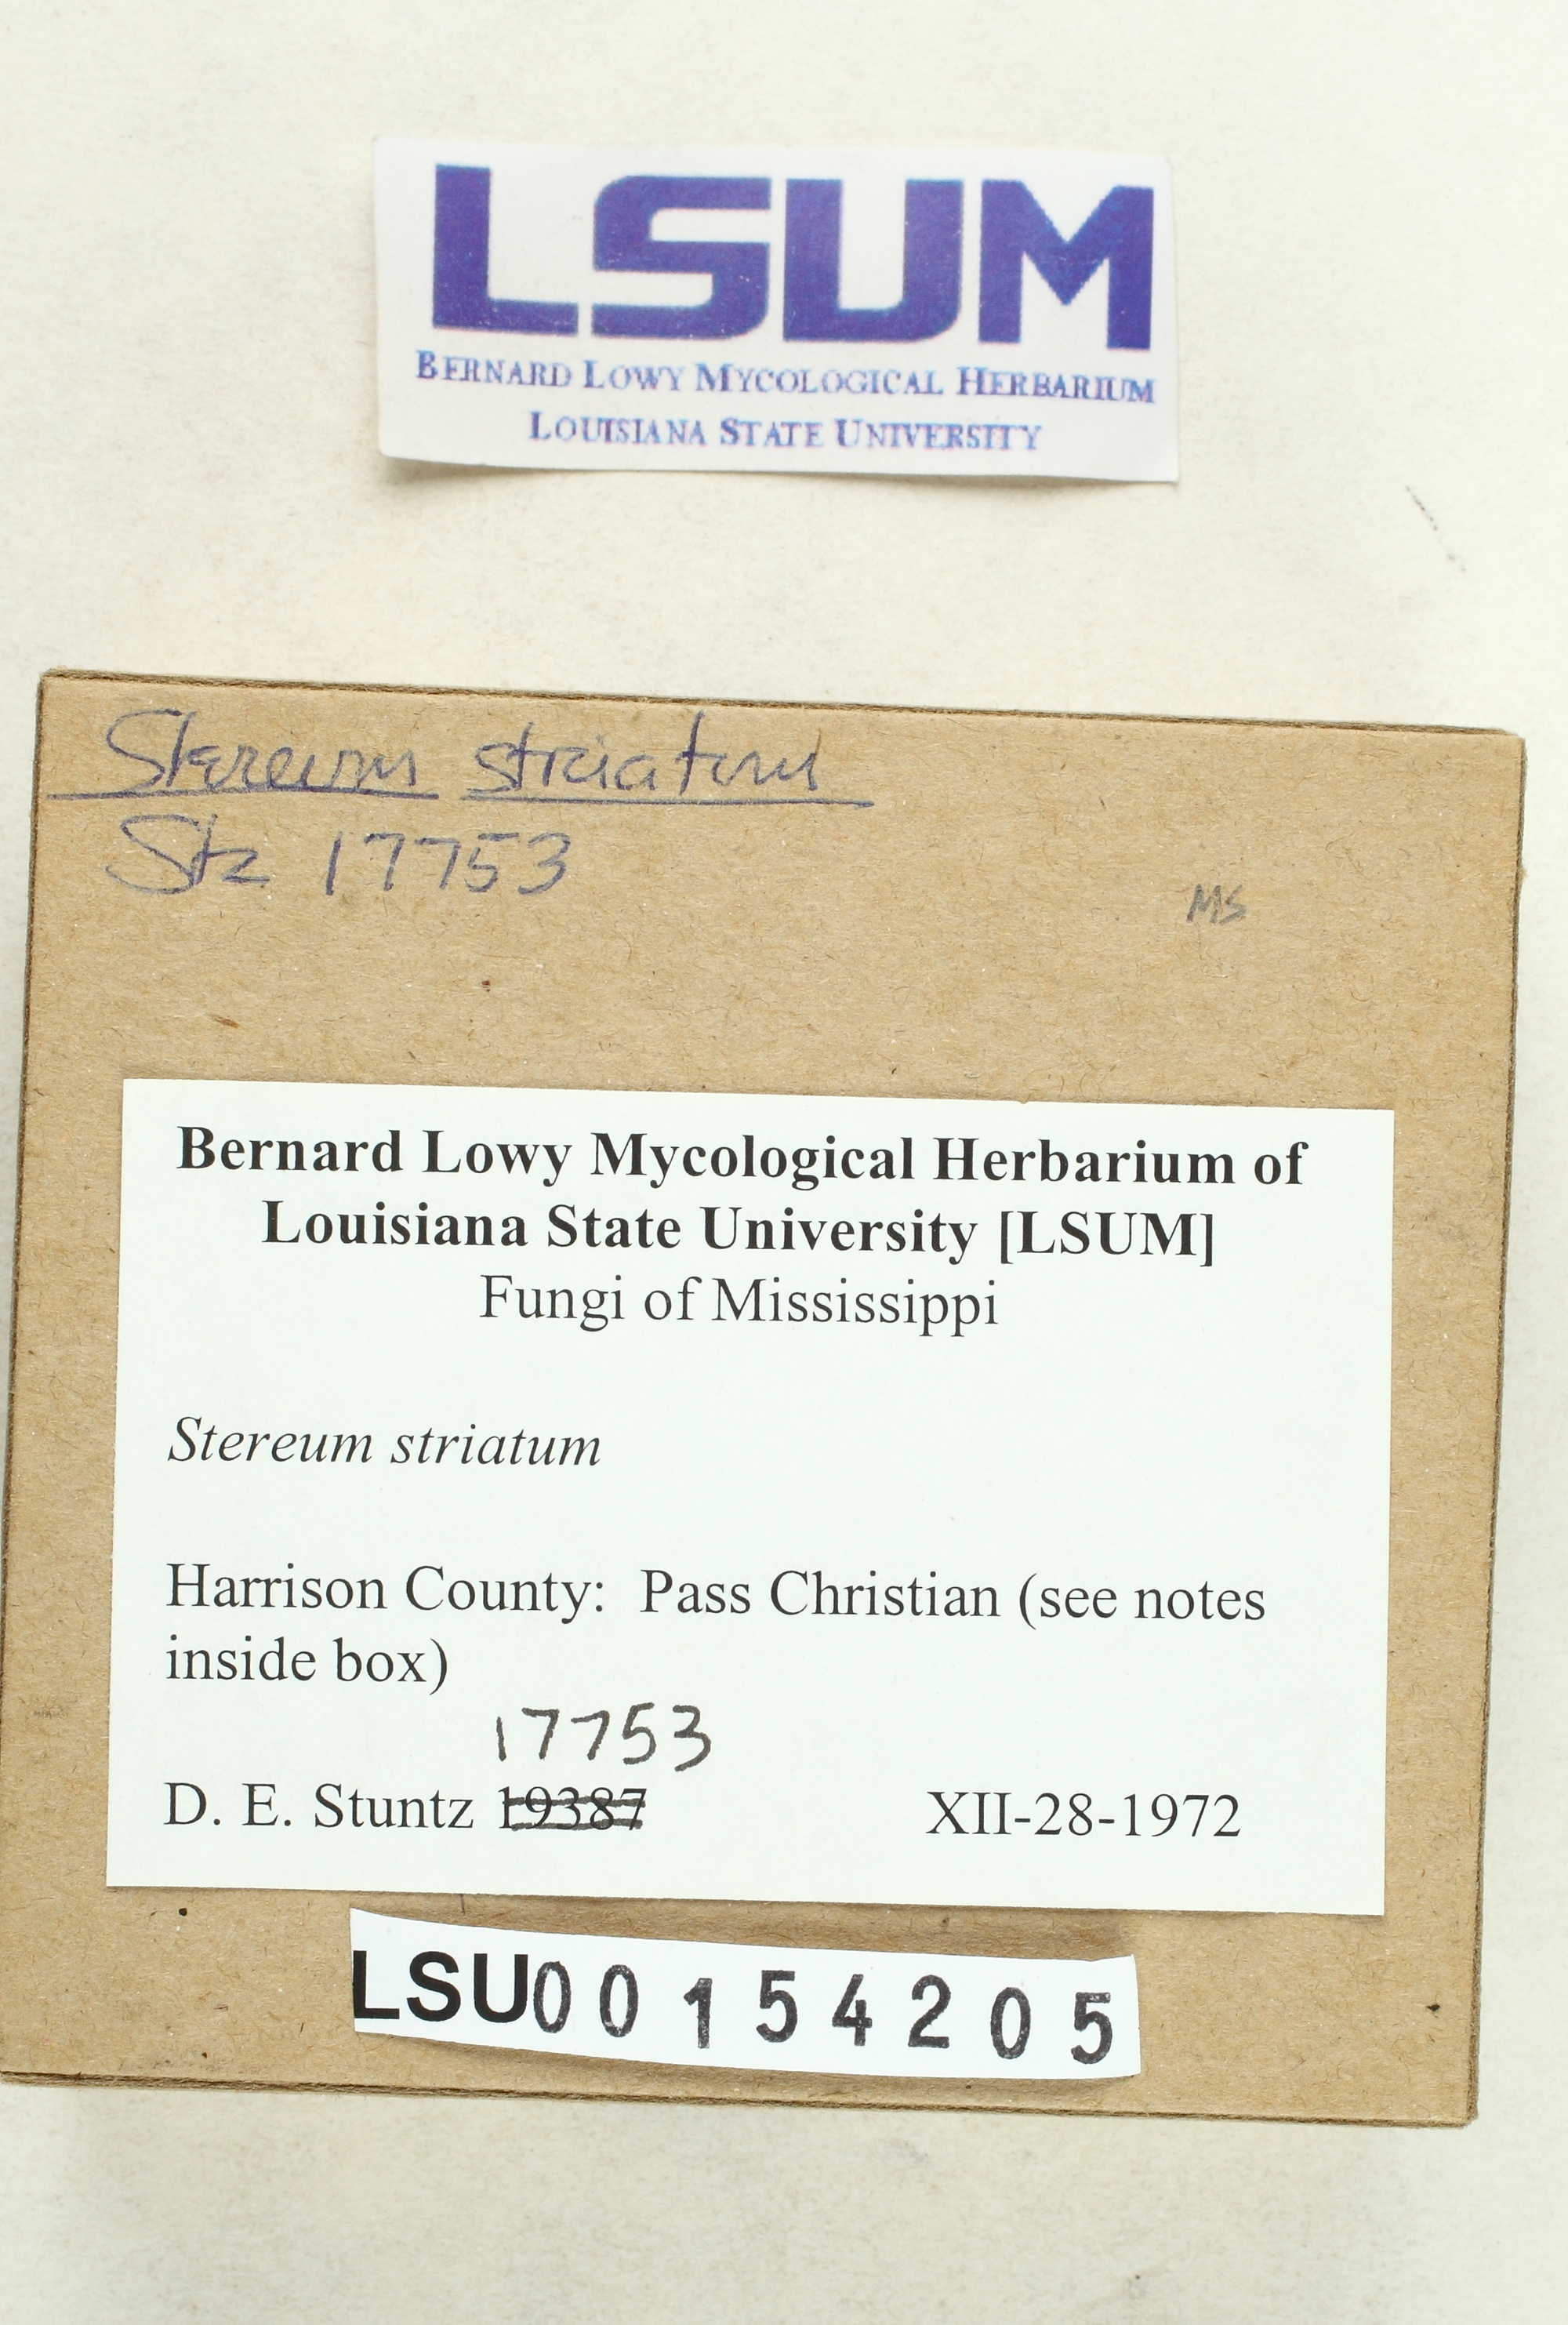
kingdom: Fungi
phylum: Basidiomycota
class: Agaricomycetes
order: Russulales
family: Stereaceae
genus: Stereum
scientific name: Stereum striatum
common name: Silky parchment
